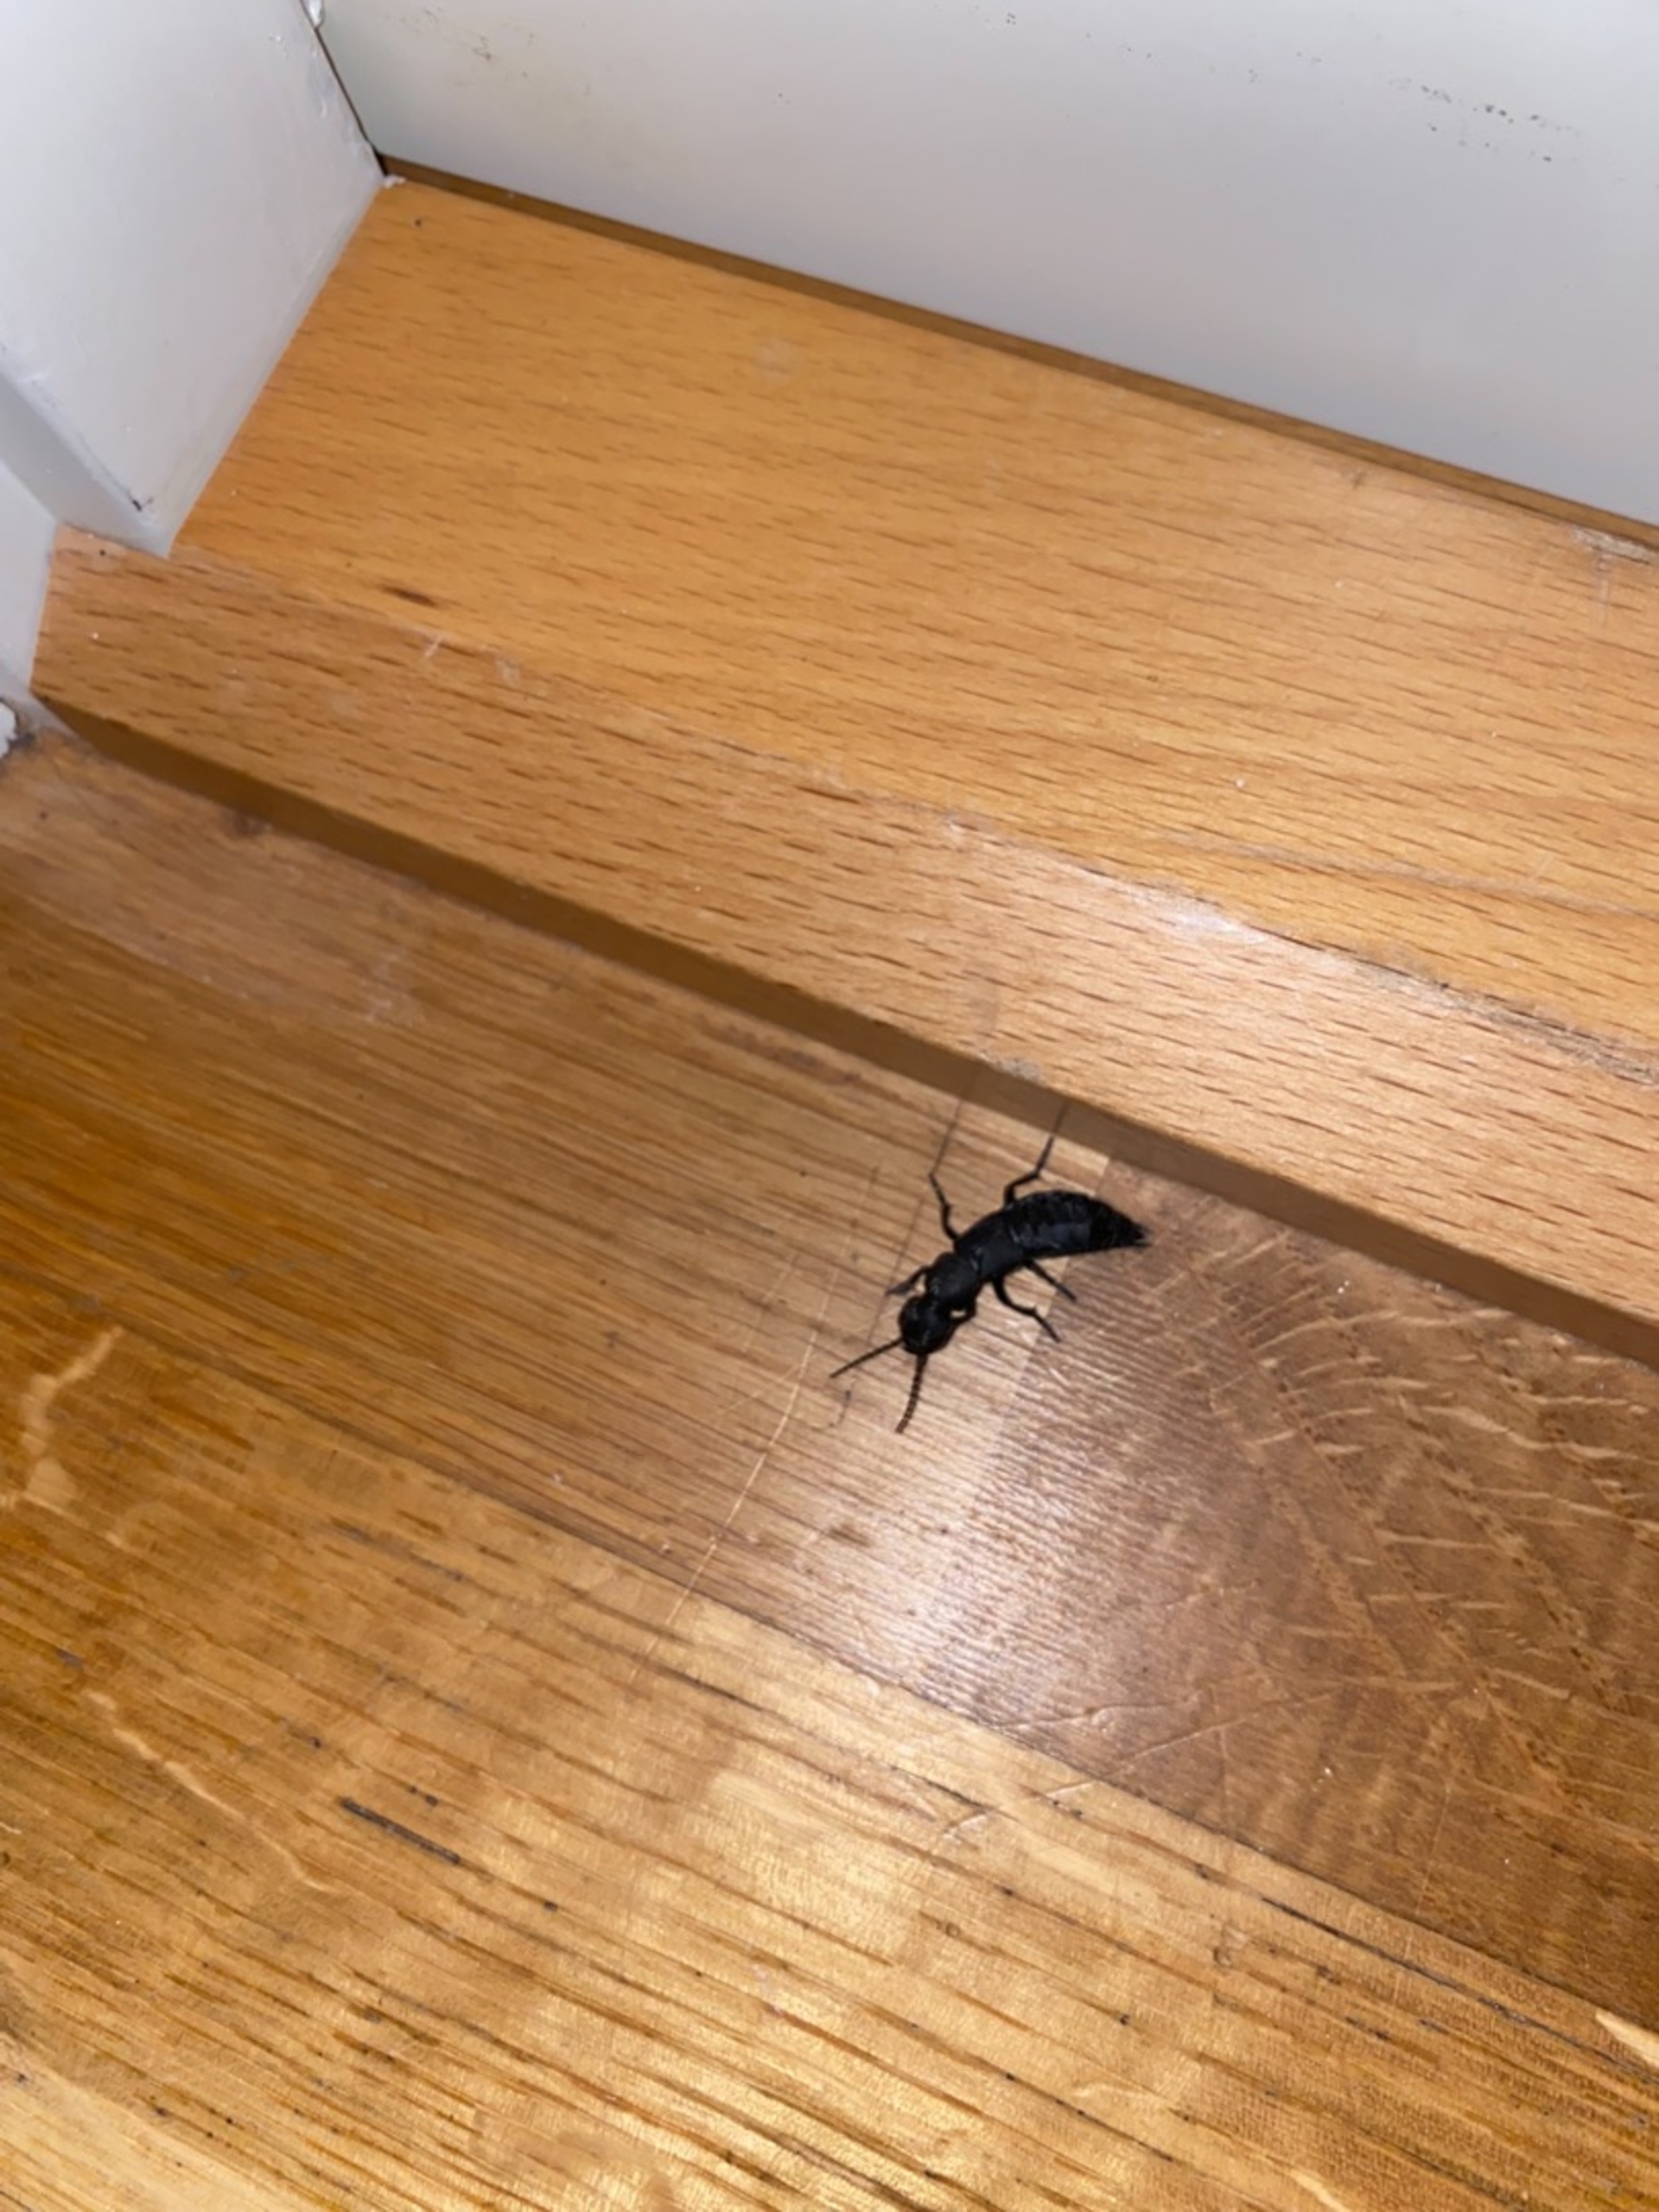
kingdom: Animalia
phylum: Arthropoda
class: Insecta
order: Coleoptera
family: Staphylinidae
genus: Ocypus
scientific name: Ocypus olens
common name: Stor rovbille
